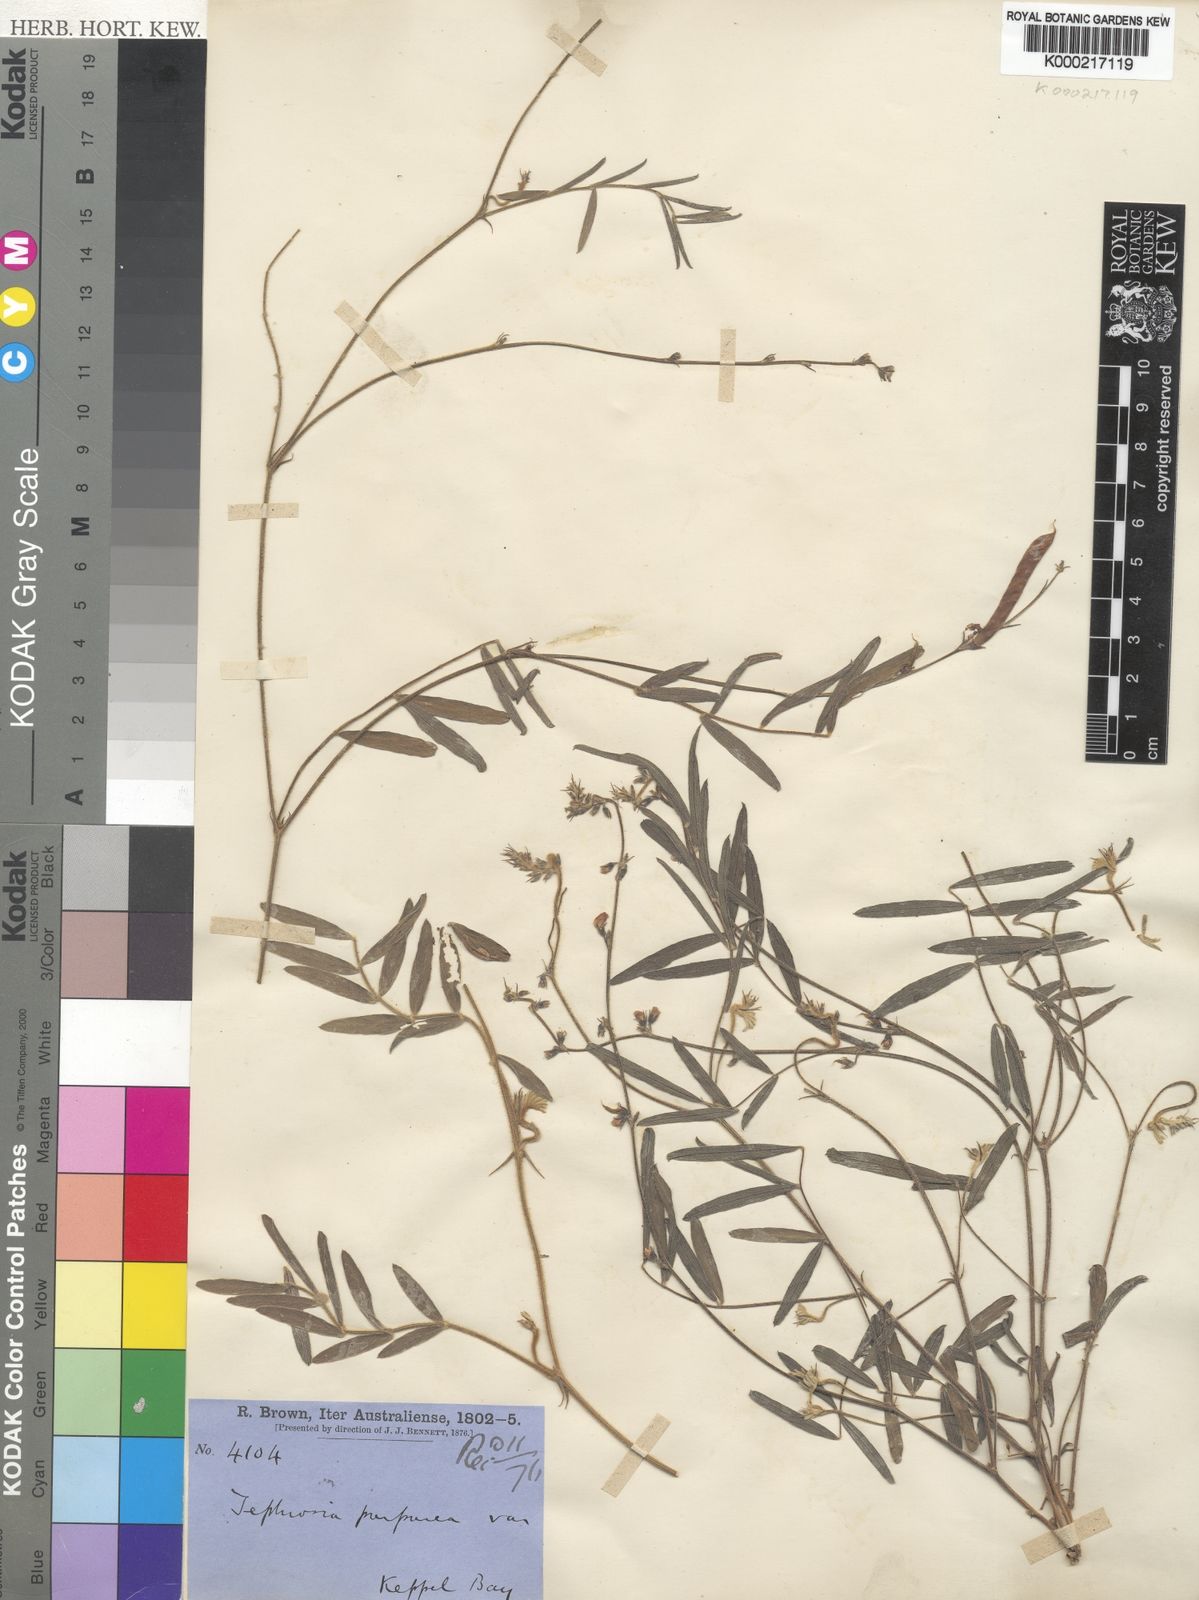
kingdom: Plantae
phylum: Tracheophyta
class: Magnoliopsida
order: Fabales
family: Fabaceae
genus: Tephrosia
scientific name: Tephrosia purpurea
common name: Fishpoison
